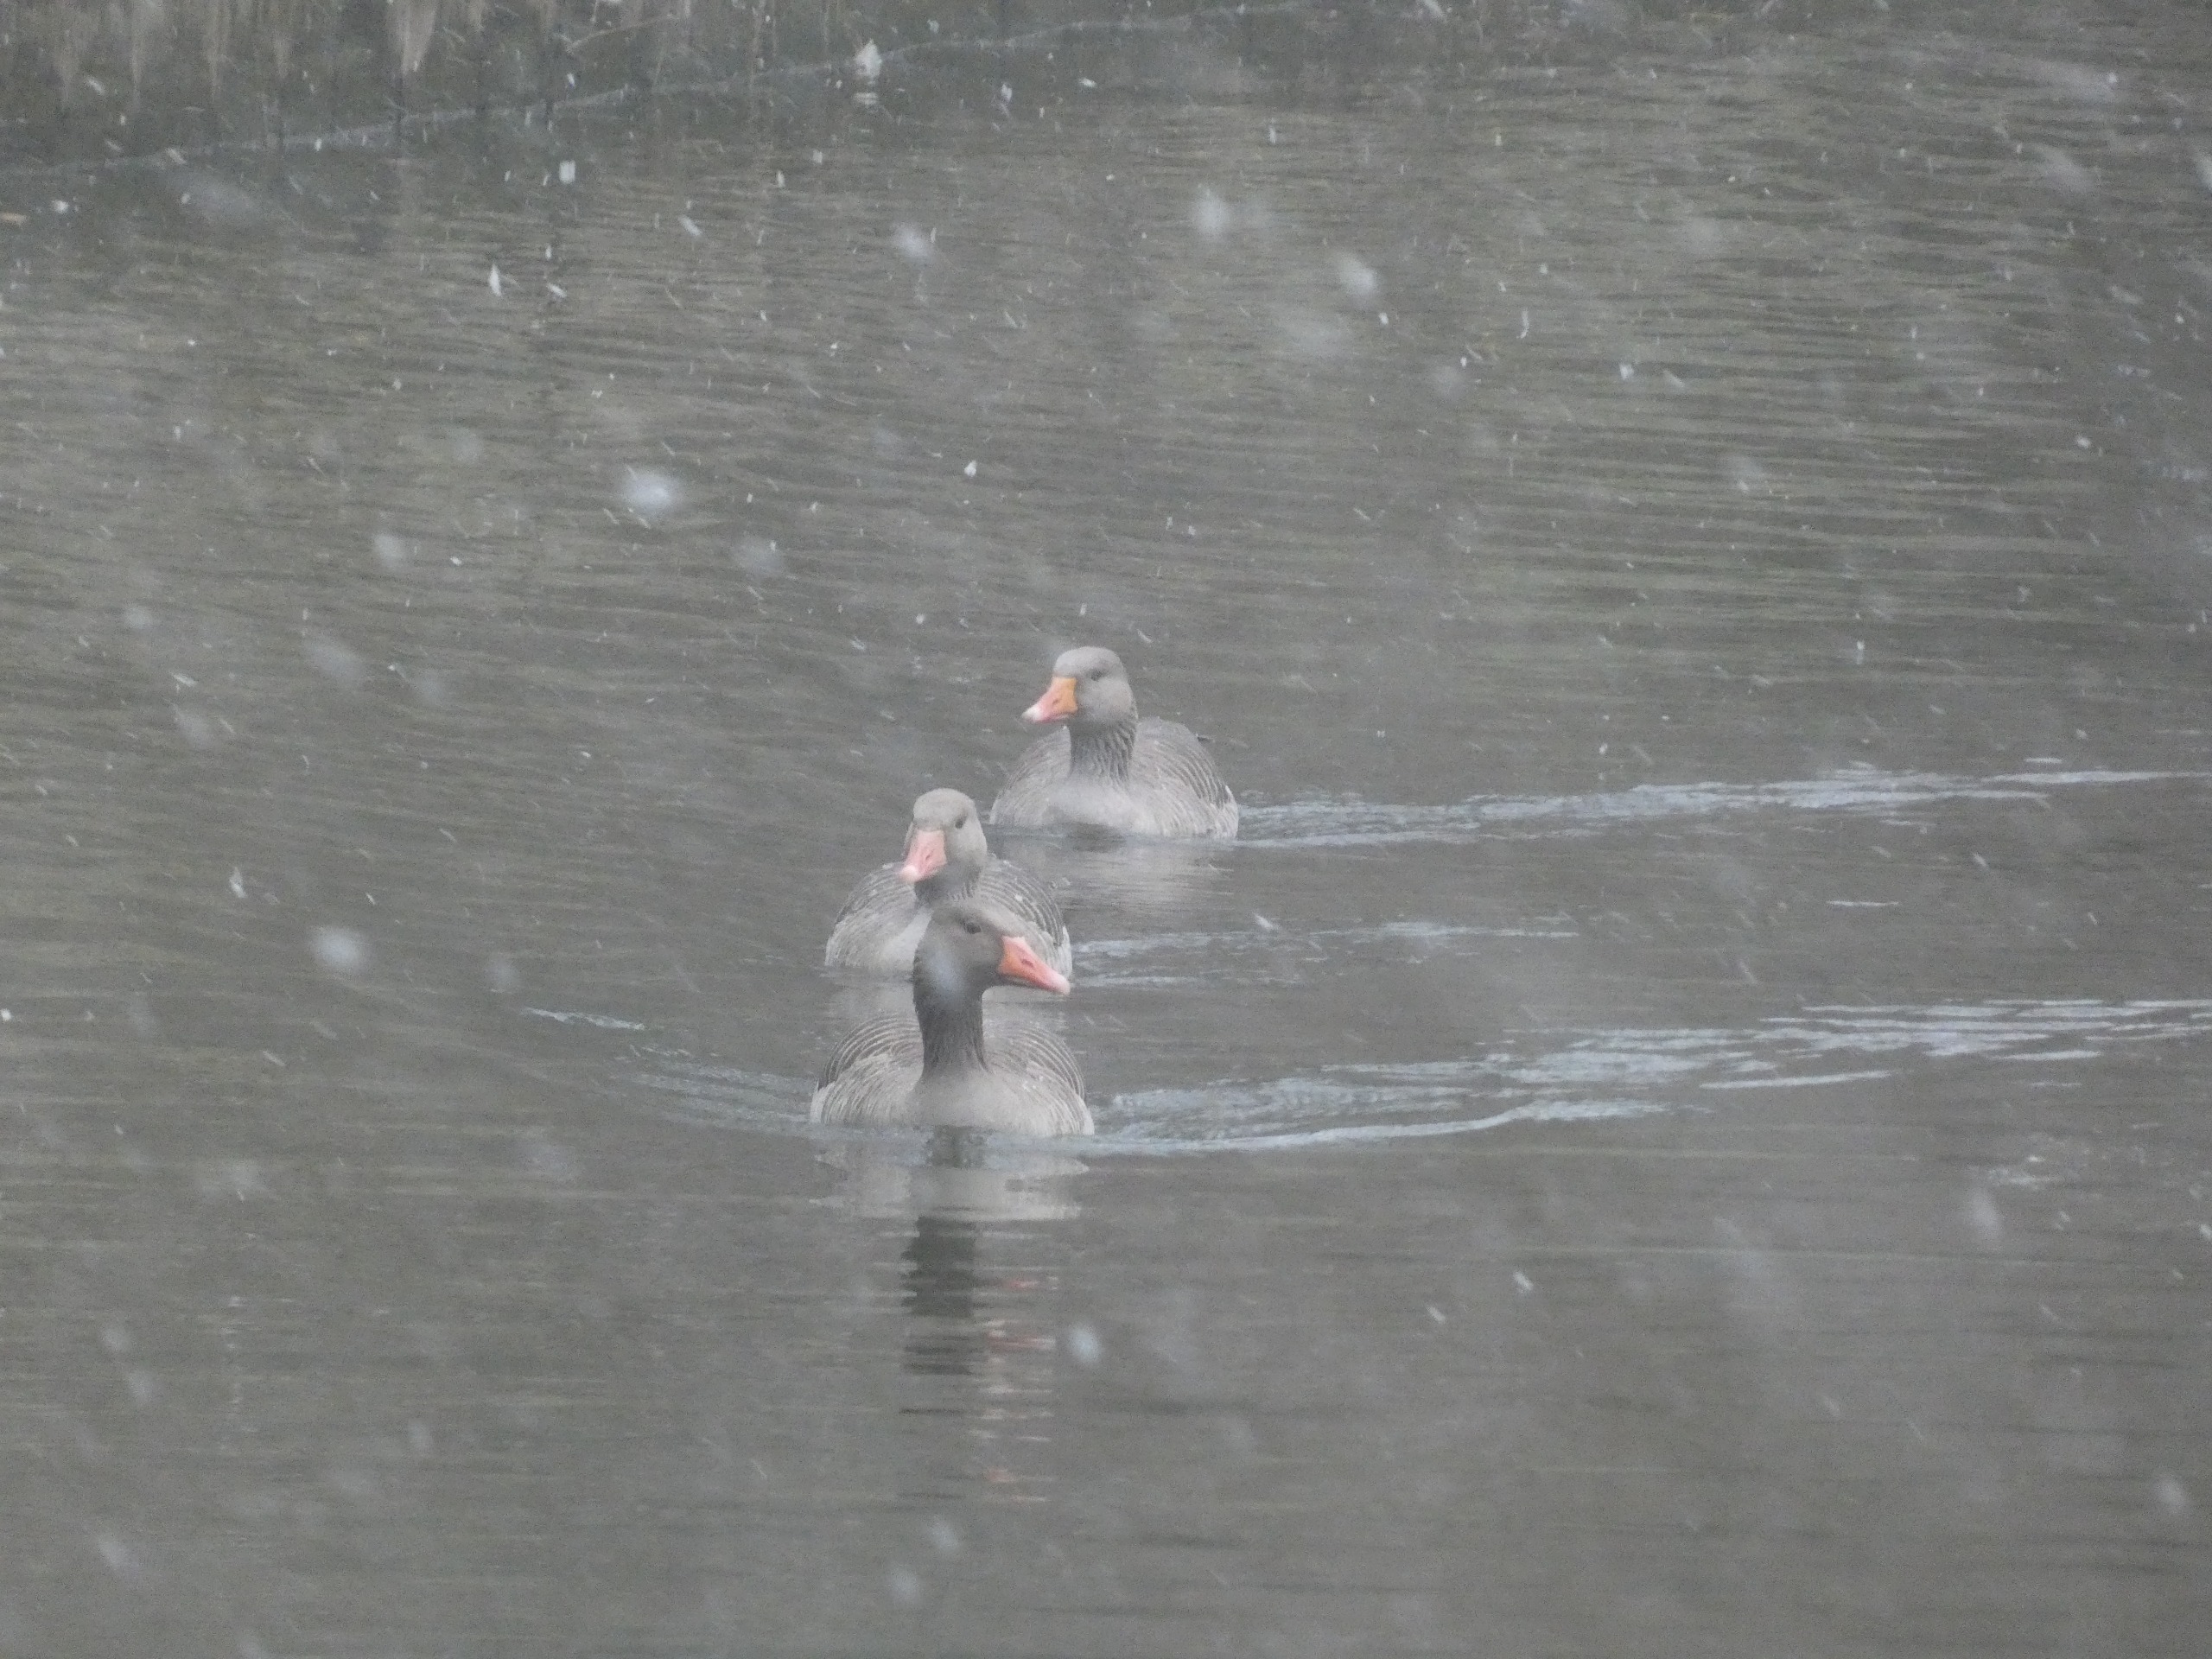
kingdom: Animalia
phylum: Chordata
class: Aves
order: Anseriformes
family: Anatidae
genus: Anser
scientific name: Anser anser
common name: Grågås
